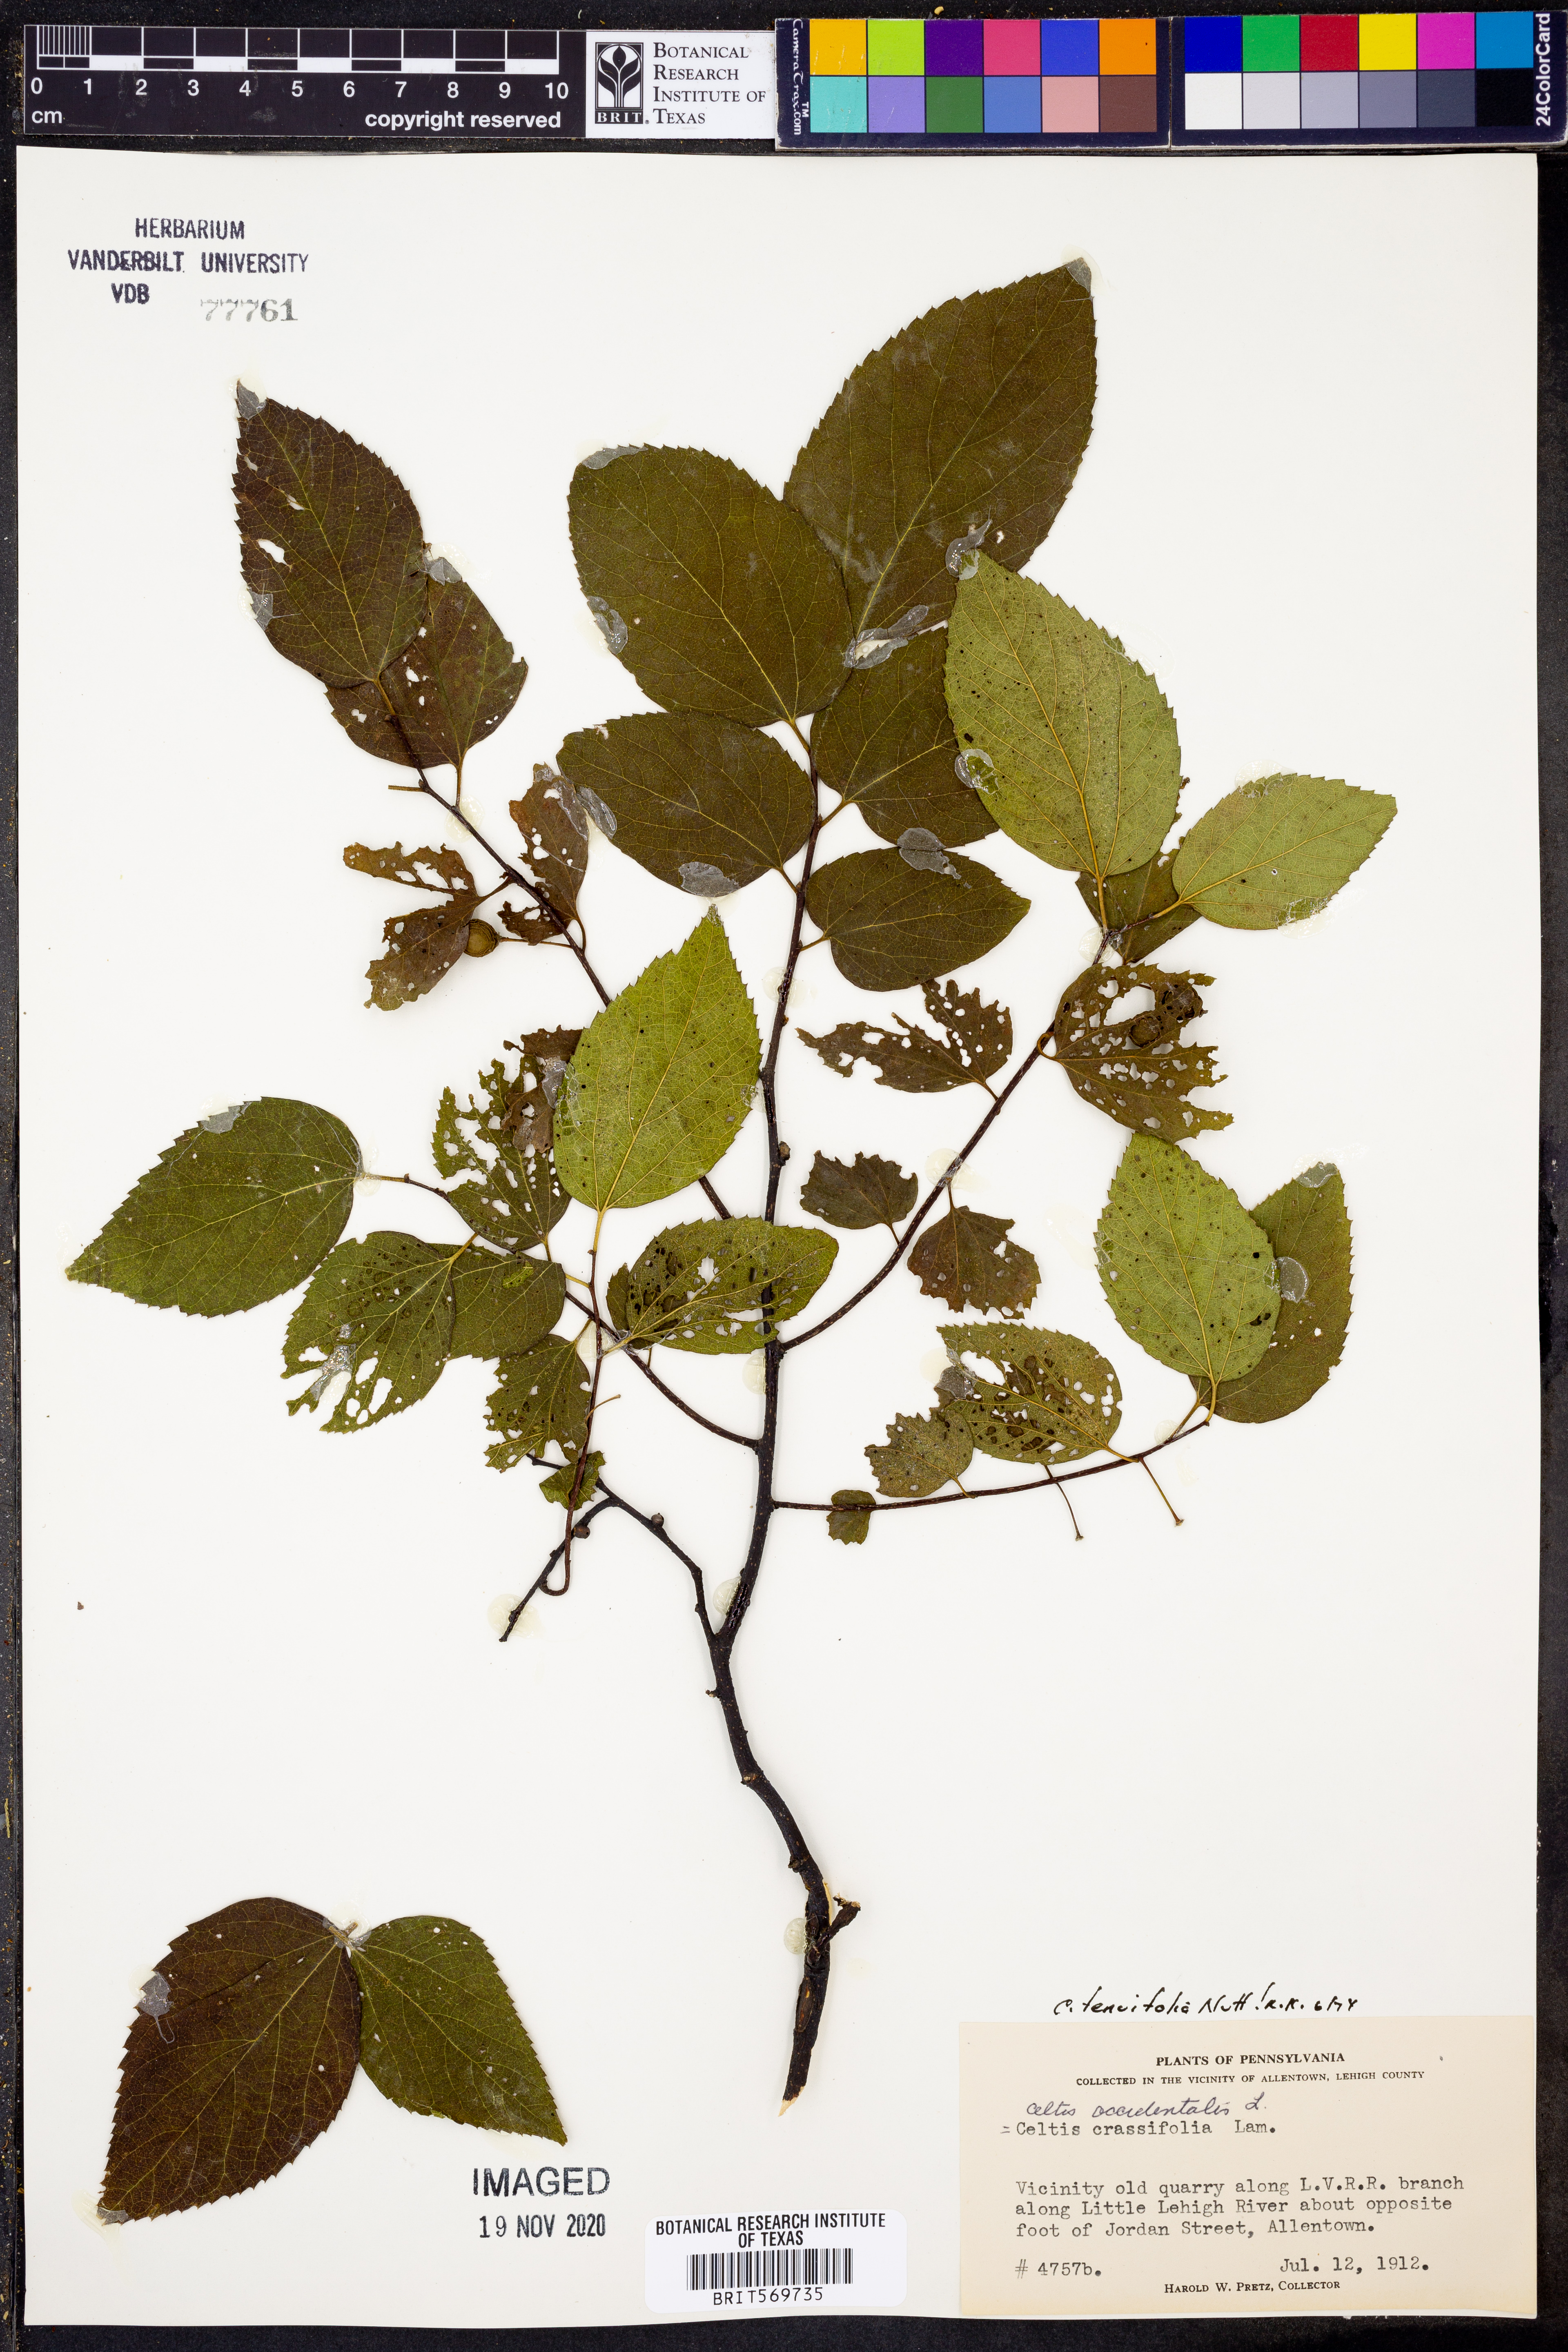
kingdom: Plantae
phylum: Tracheophyta
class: Magnoliopsida
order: Rosales
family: Cannabaceae
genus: Celtis
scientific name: Celtis tenuifolia
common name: Georgia hackberry
